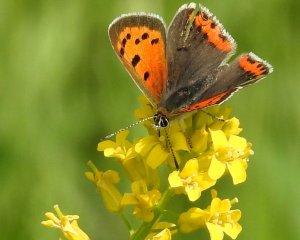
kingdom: Animalia
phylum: Arthropoda
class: Insecta
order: Lepidoptera
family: Lycaenidae
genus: Lycaena
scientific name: Lycaena phlaeas
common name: American Copper
